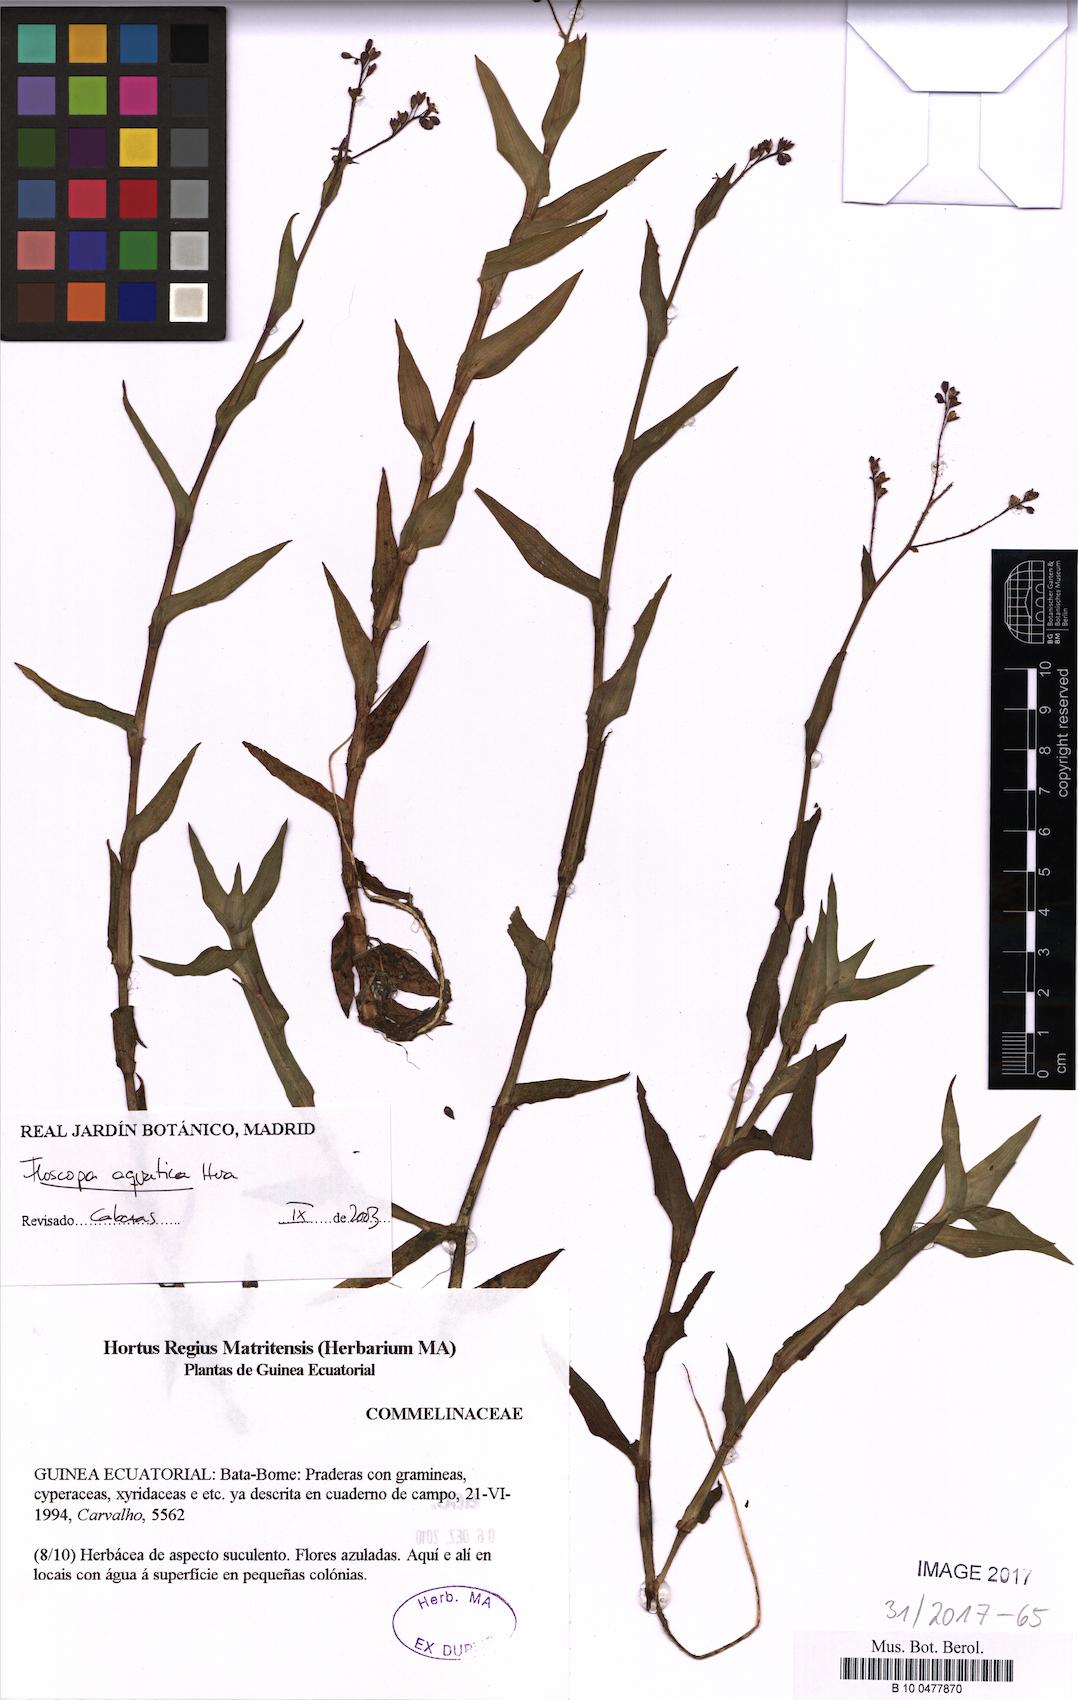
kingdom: Plantae
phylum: Tracheophyta
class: Liliopsida
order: Commelinales
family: Commelinaceae
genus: Floscopa
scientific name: Floscopa aquatica
